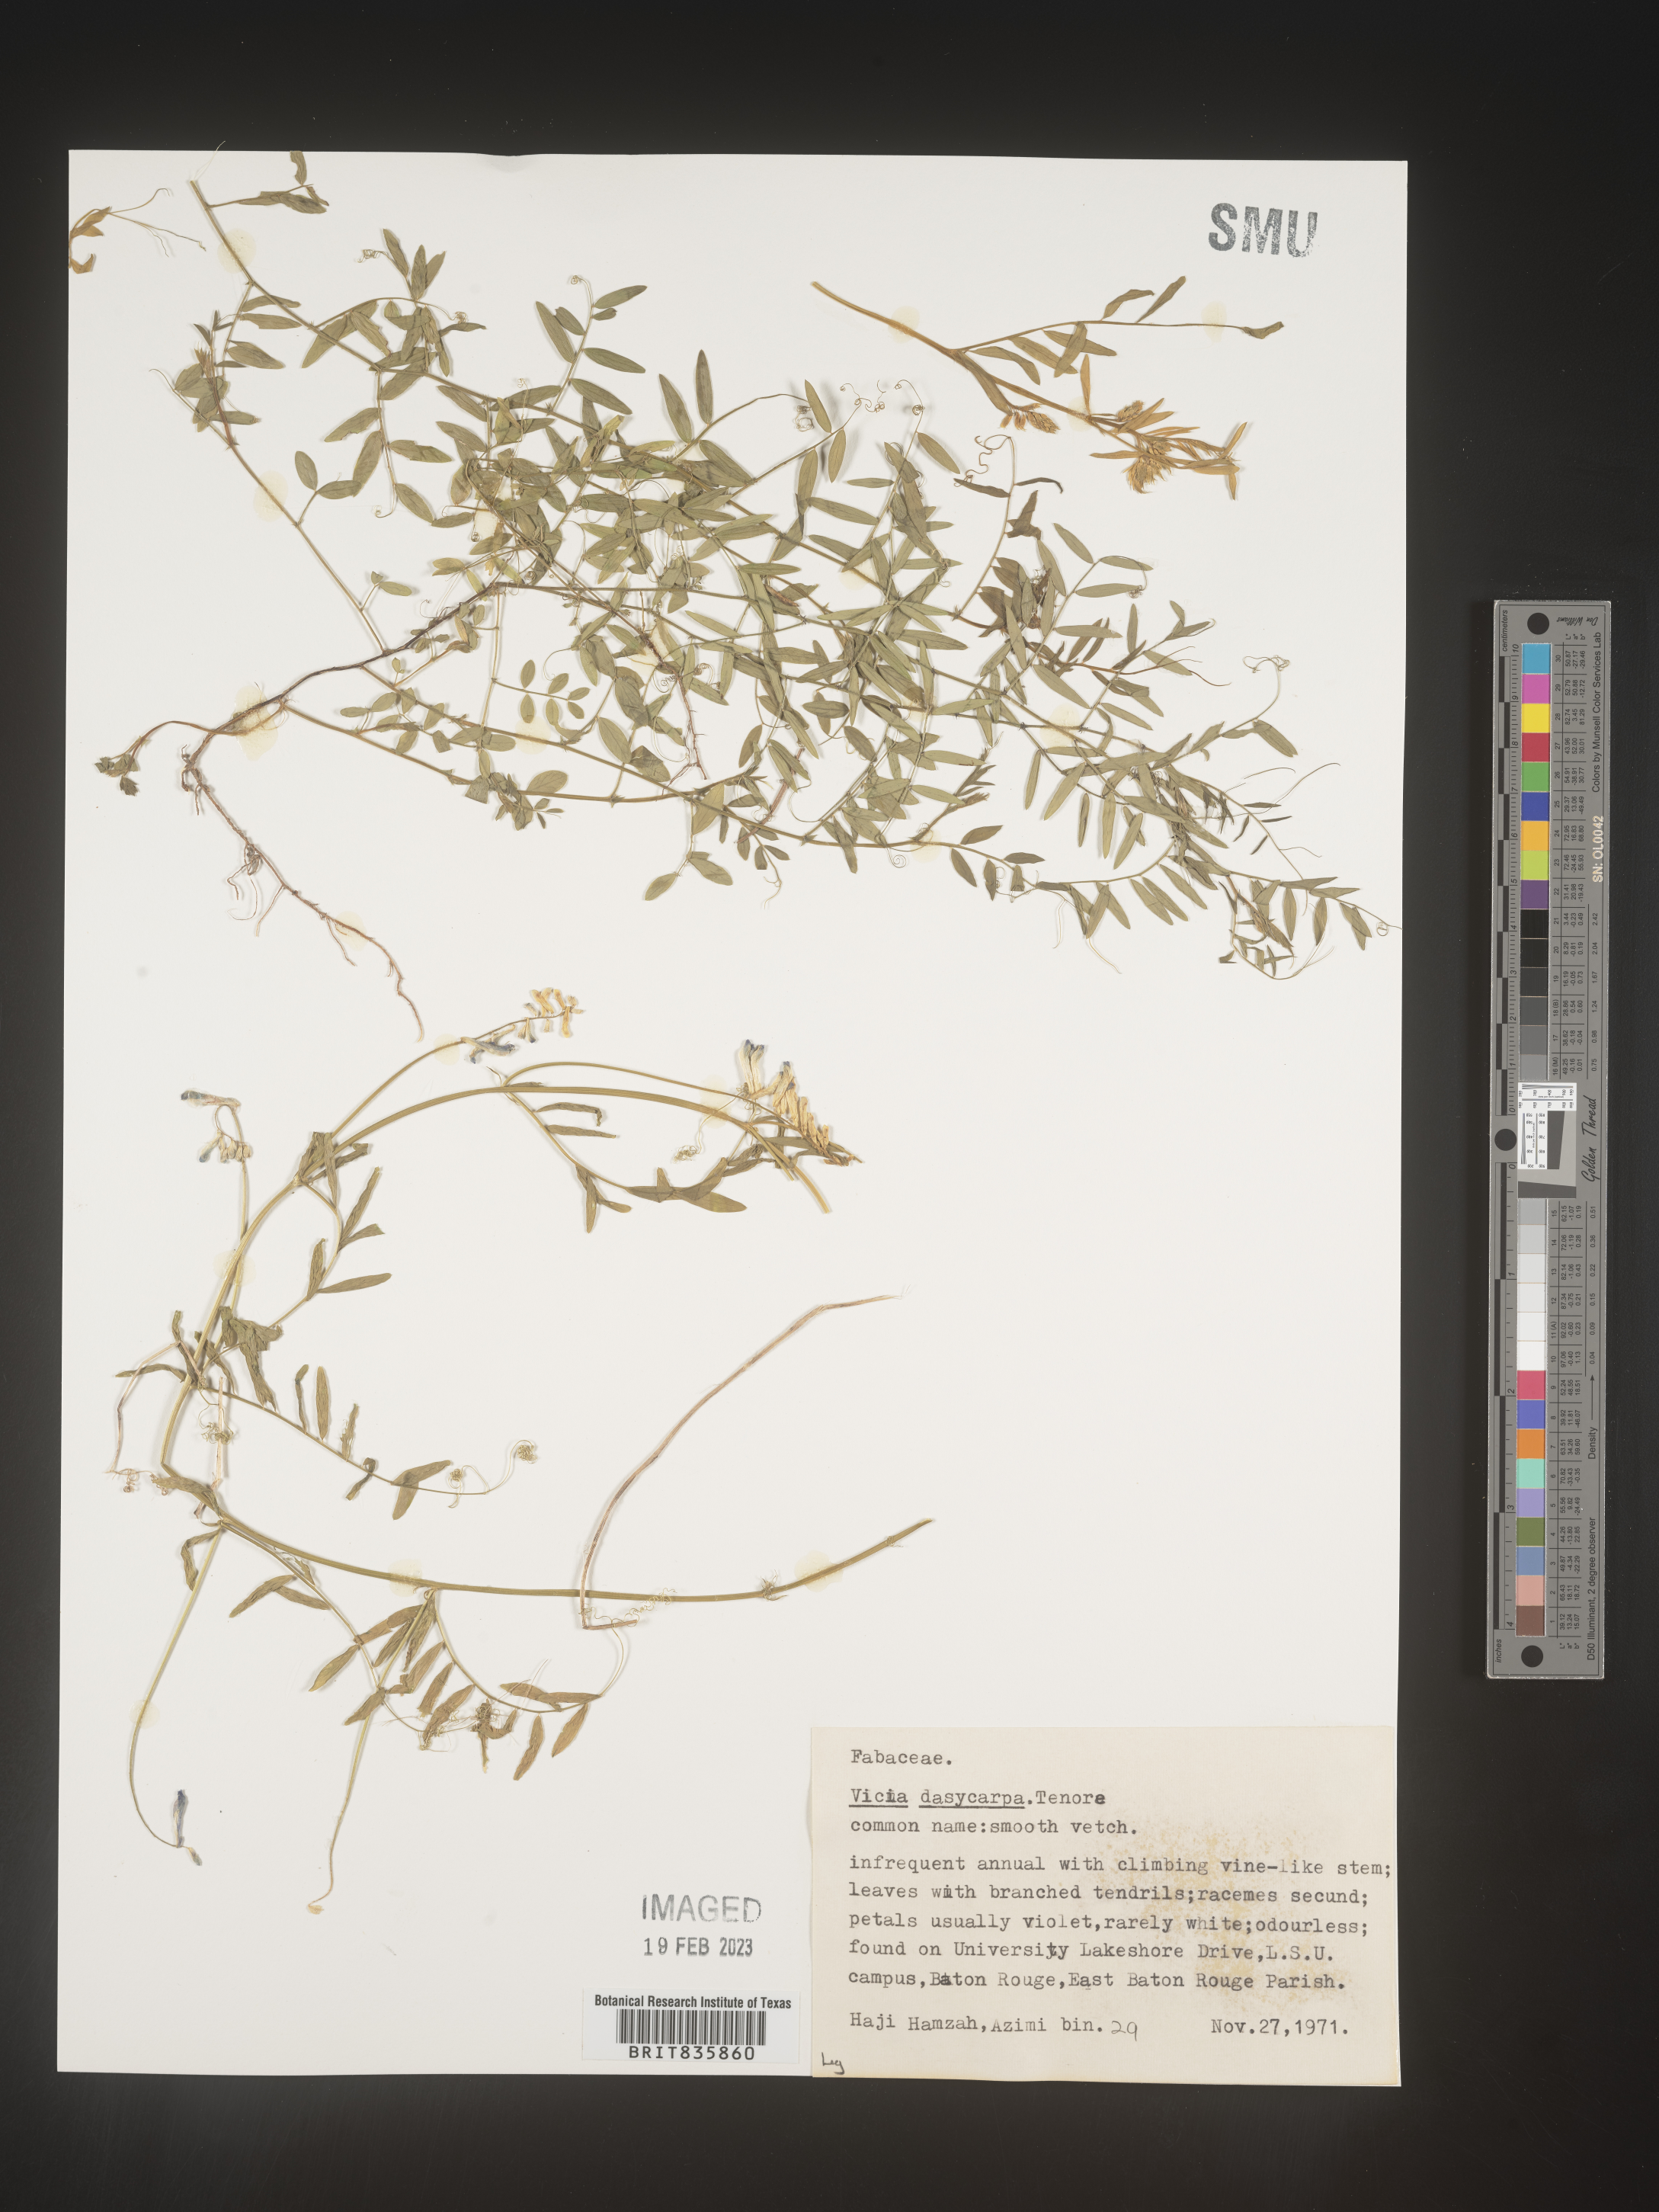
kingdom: Plantae
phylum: Tracheophyta
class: Magnoliopsida
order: Fabales
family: Fabaceae
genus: Vicia
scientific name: Vicia villosa
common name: Fodder vetch
